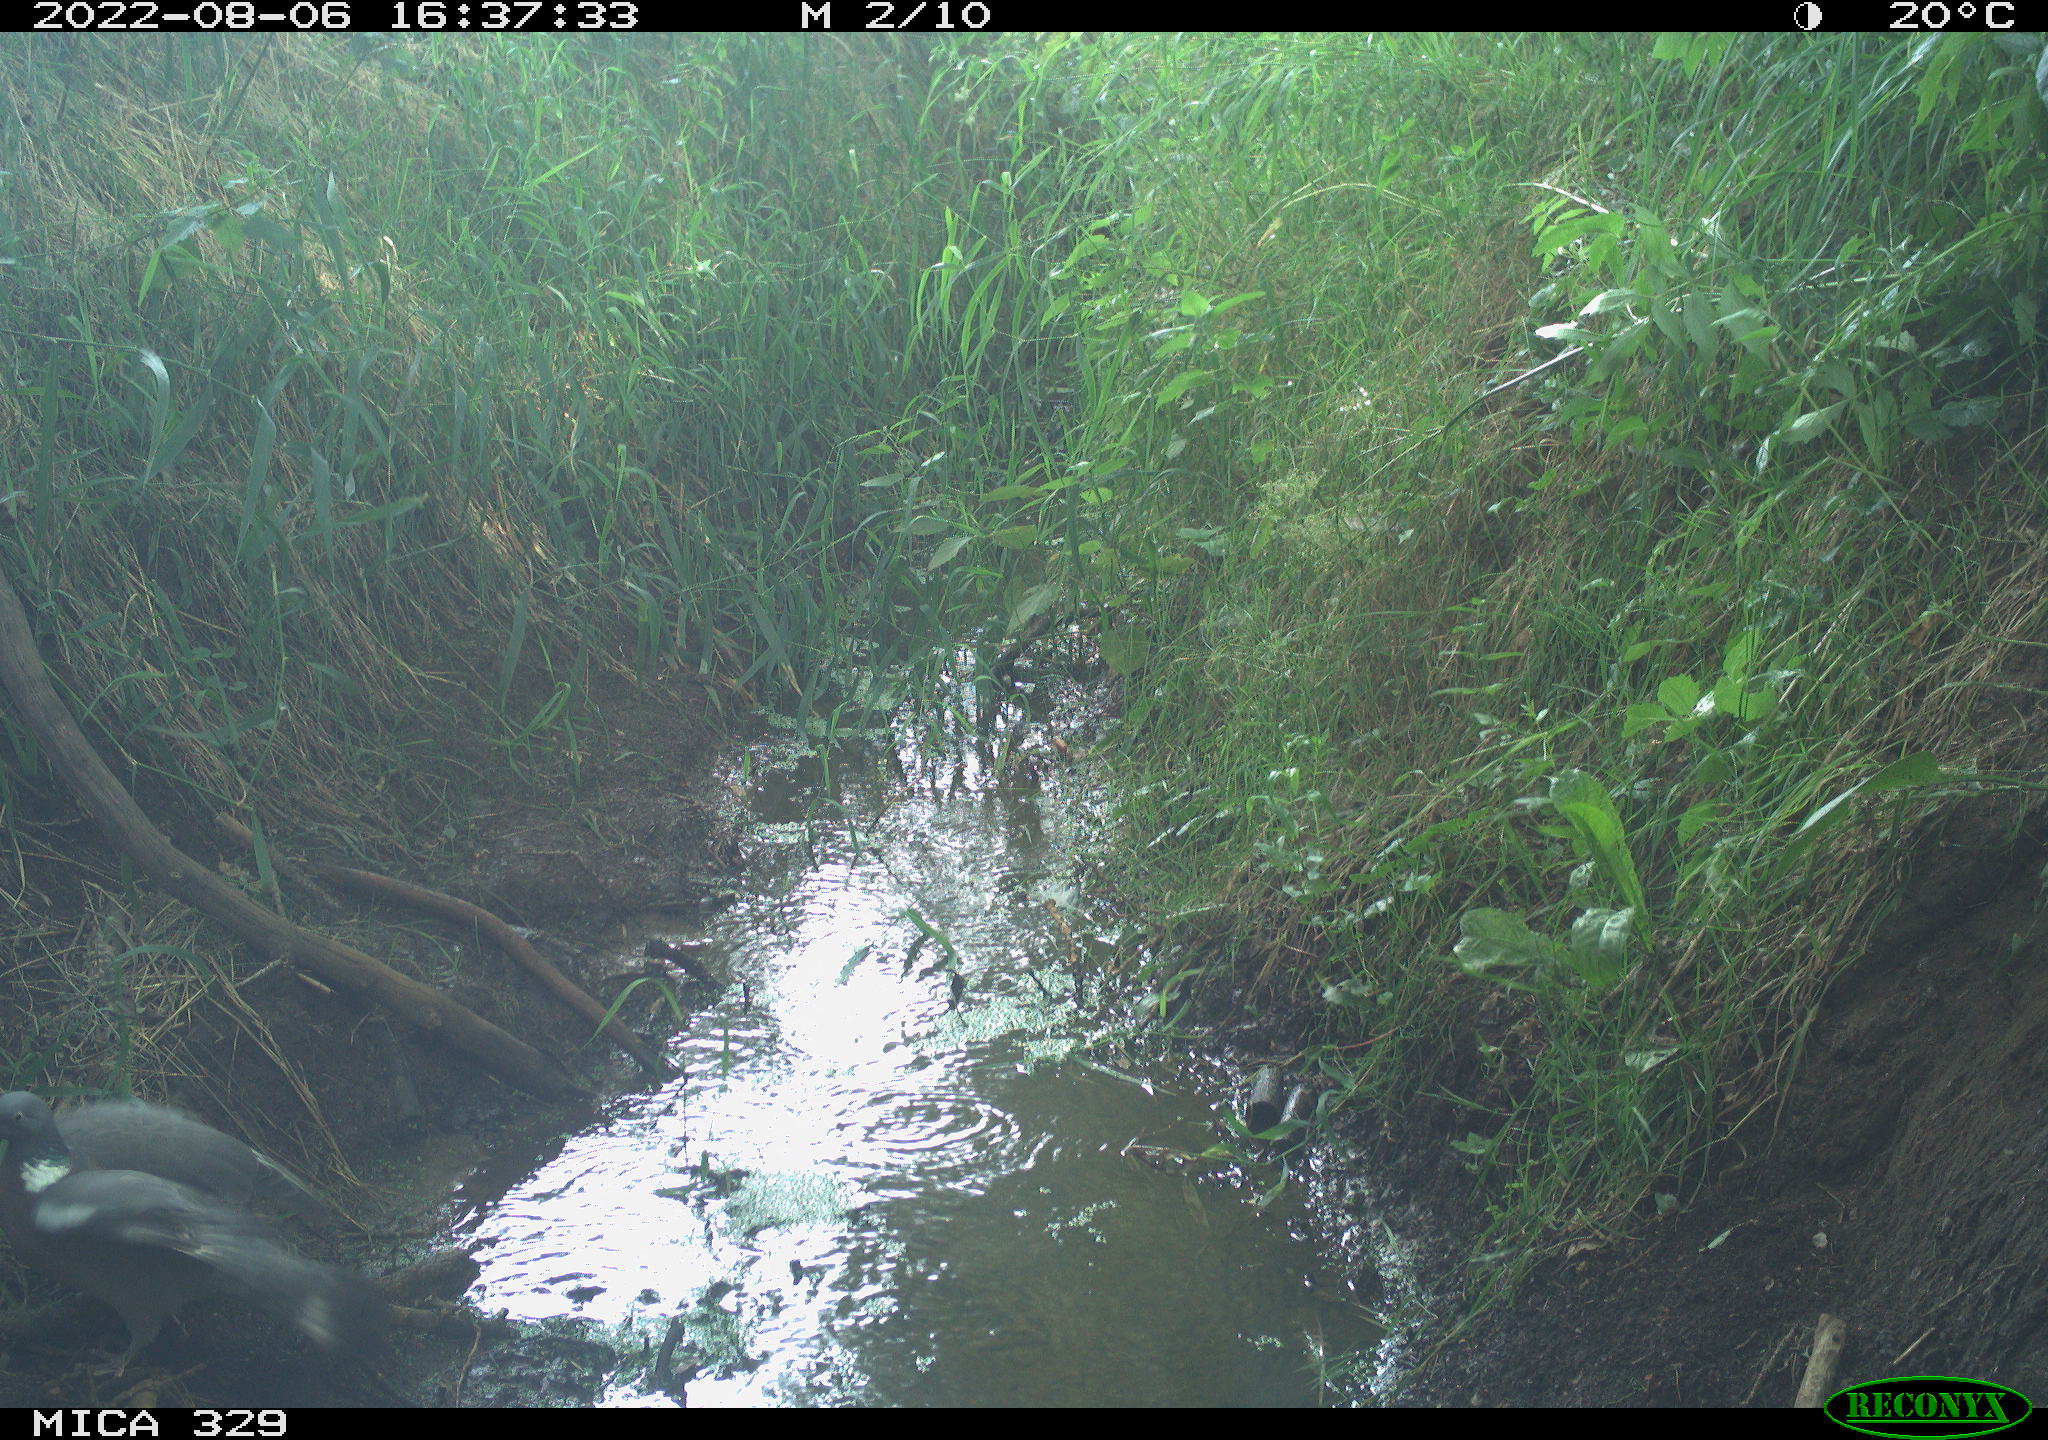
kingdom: Animalia
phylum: Chordata
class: Aves
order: Columbiformes
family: Columbidae
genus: Columba
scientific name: Columba palumbus
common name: Common wood pigeon
